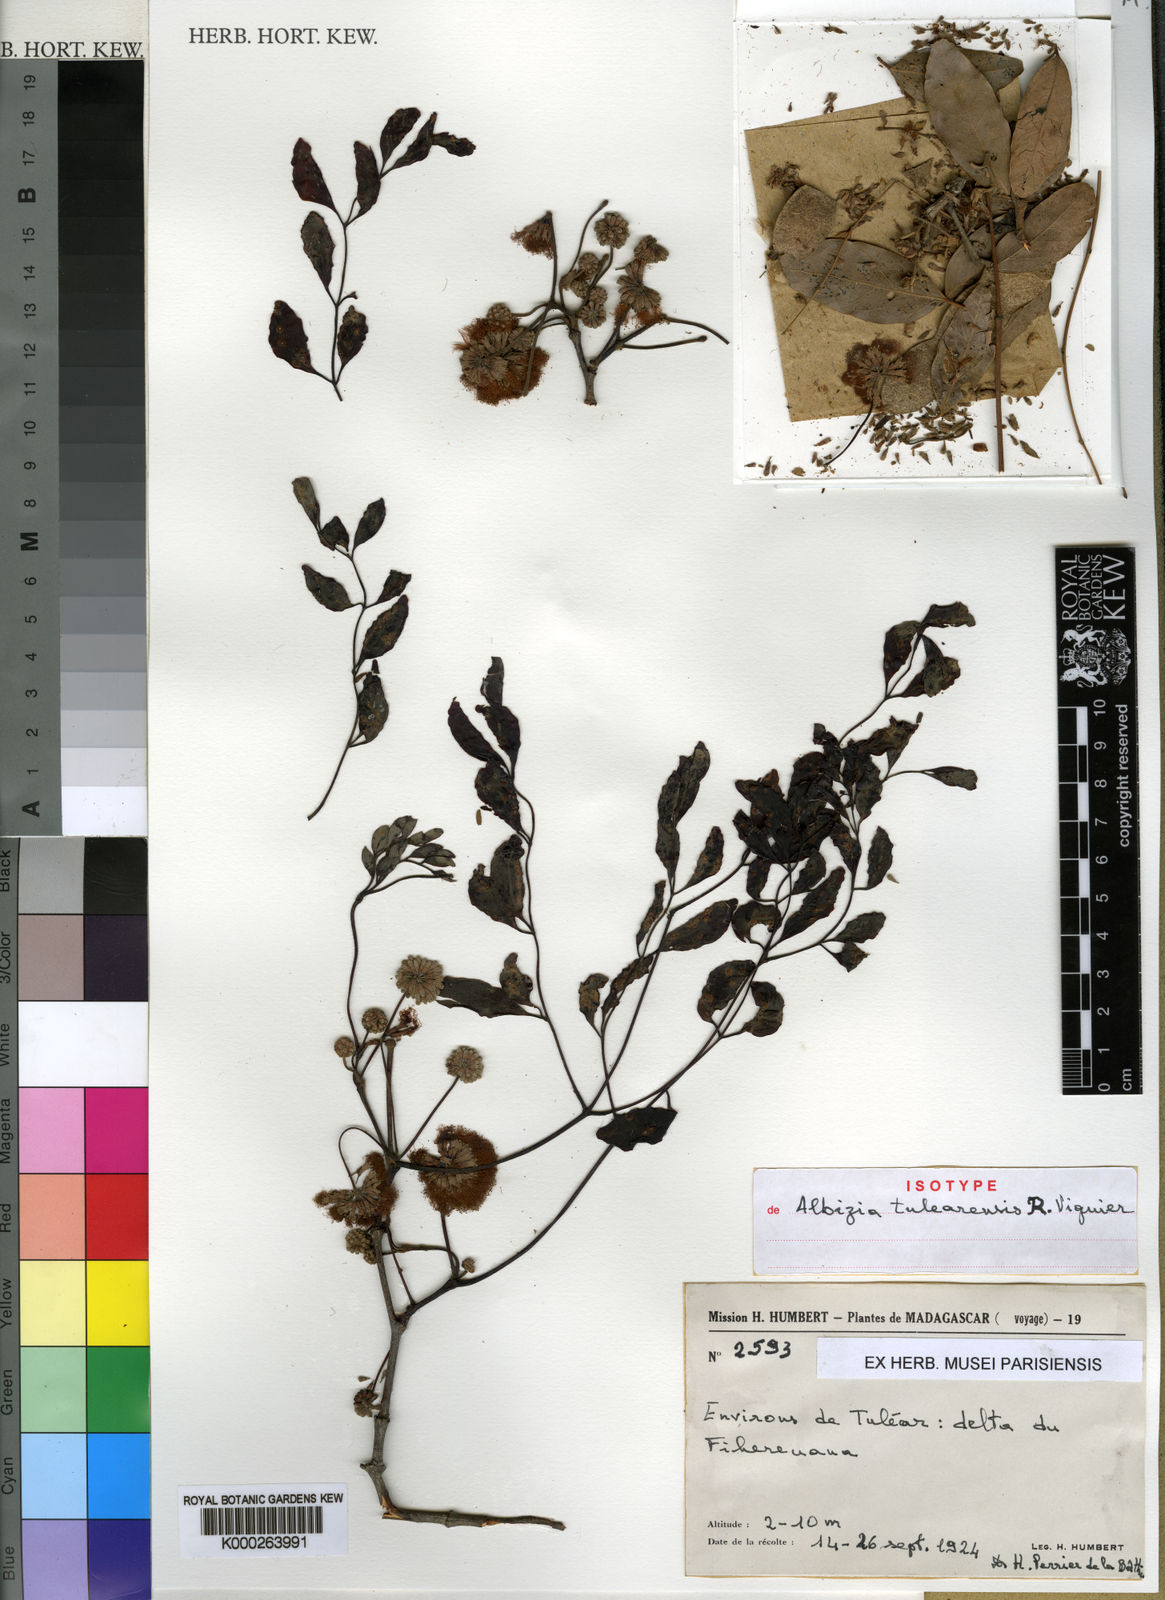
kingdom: Plantae
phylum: Tracheophyta
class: Magnoliopsida
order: Fabales
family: Fabaceae
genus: Albizia
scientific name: Albizia tulearensis
